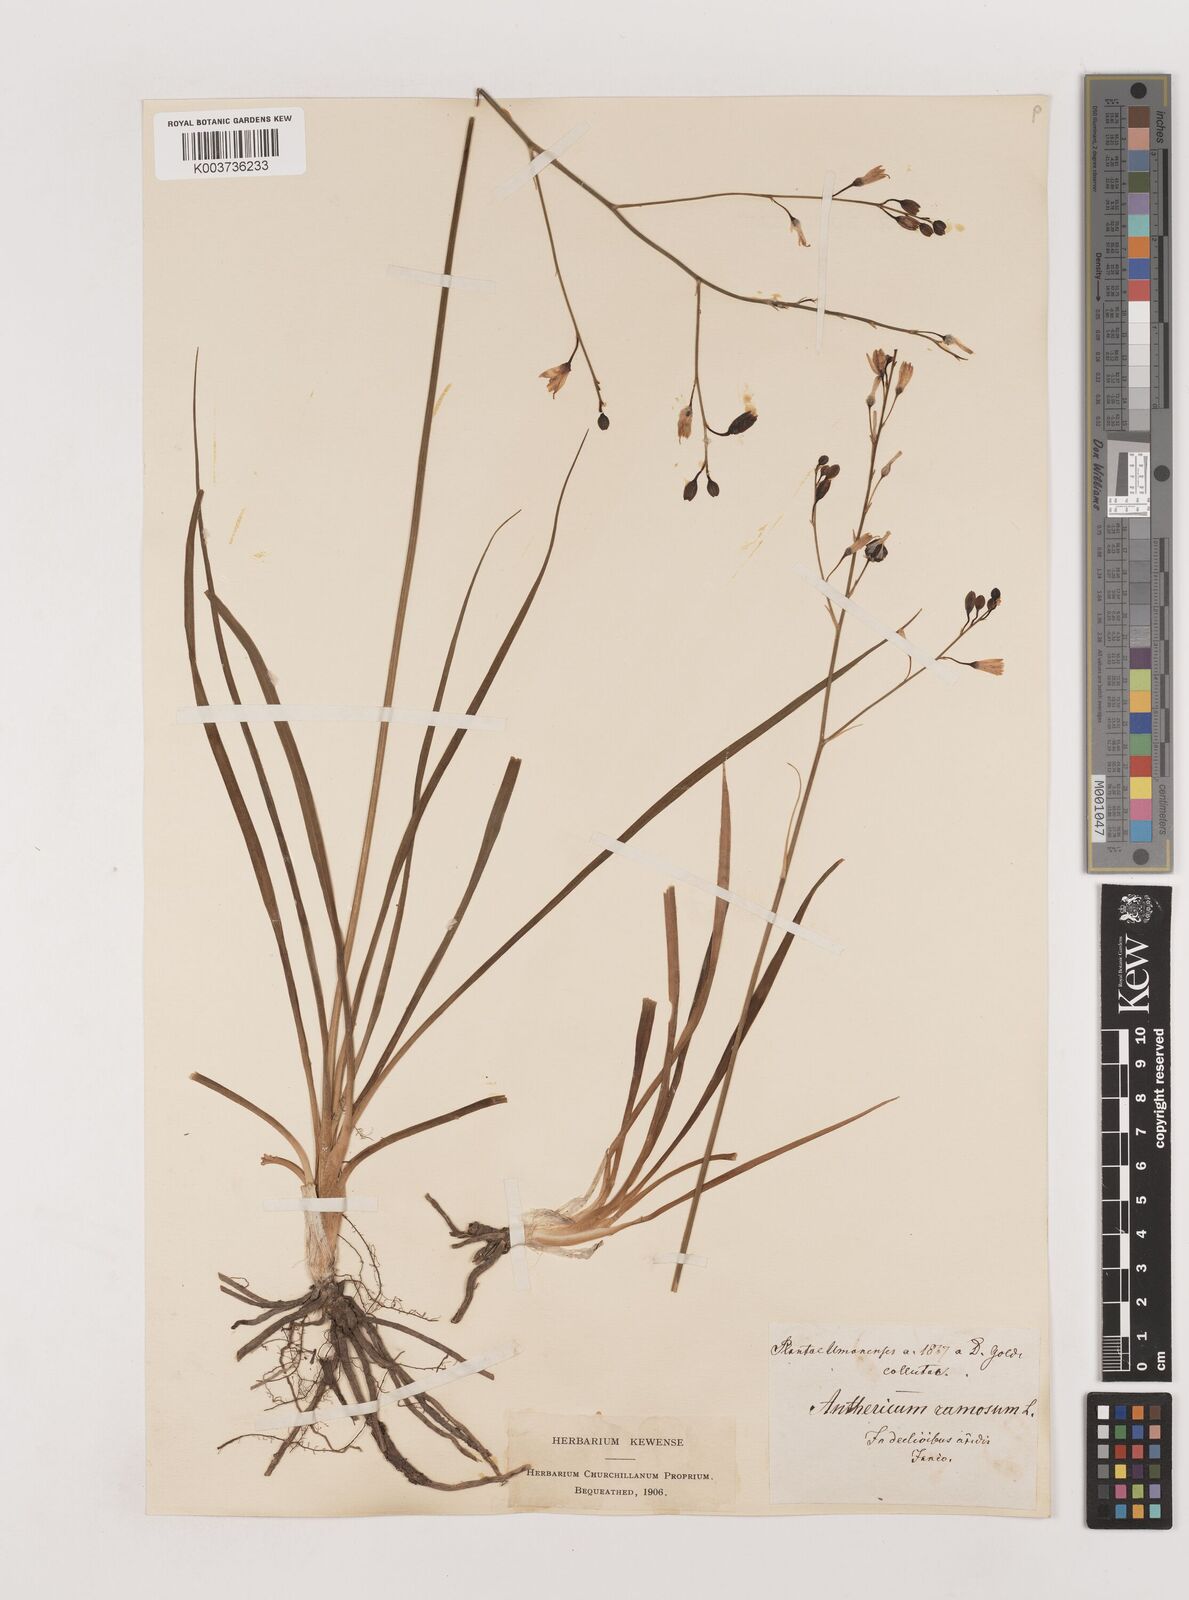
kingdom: Plantae
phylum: Tracheophyta
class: Liliopsida
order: Asparagales
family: Asparagaceae
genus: Anthericum
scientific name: Anthericum ramosum
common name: Branched st. bernard's-lily
